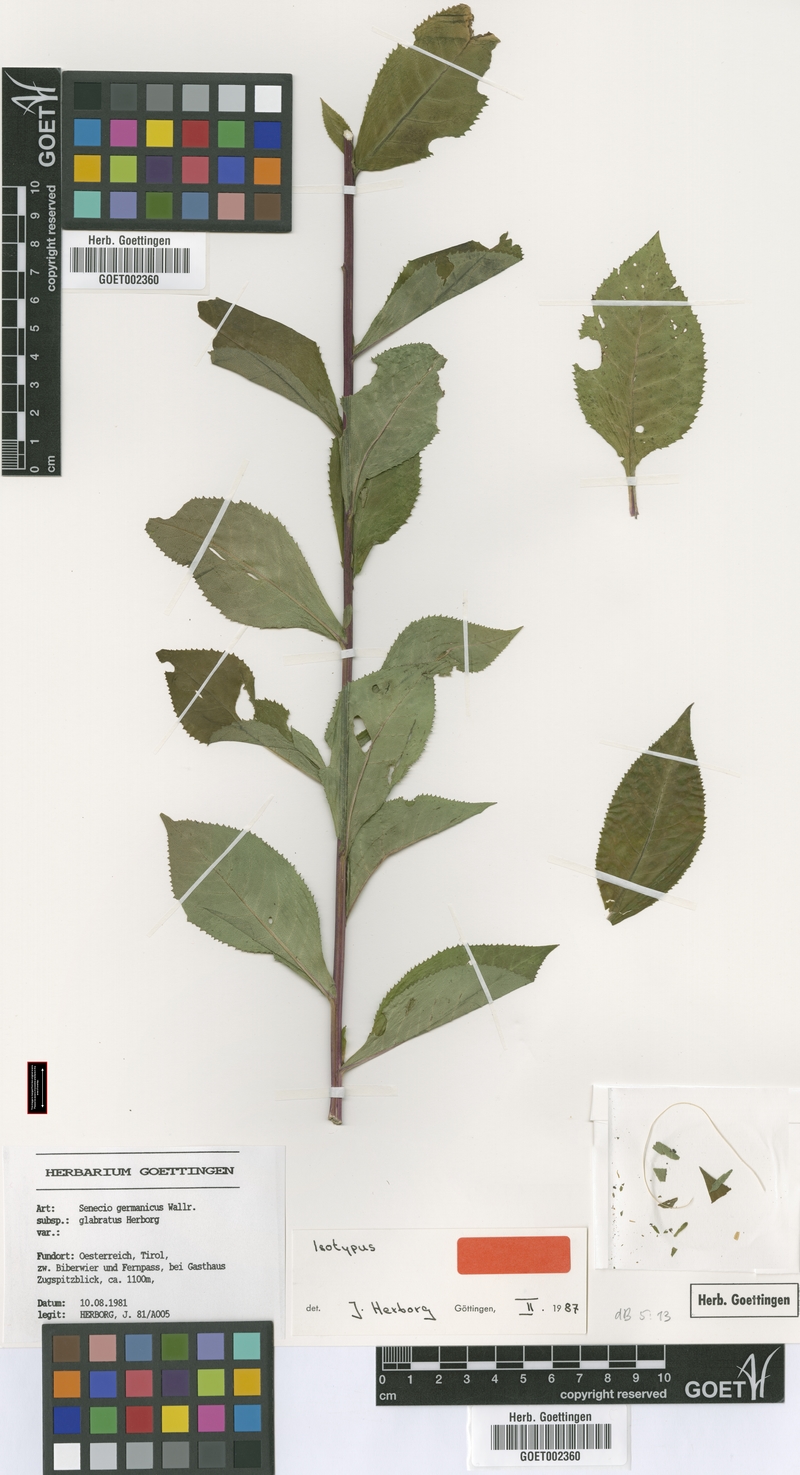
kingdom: Plantae
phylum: Tracheophyta
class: Magnoliopsida
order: Asterales
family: Asteraceae
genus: Senecio
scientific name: Senecio germanicus
